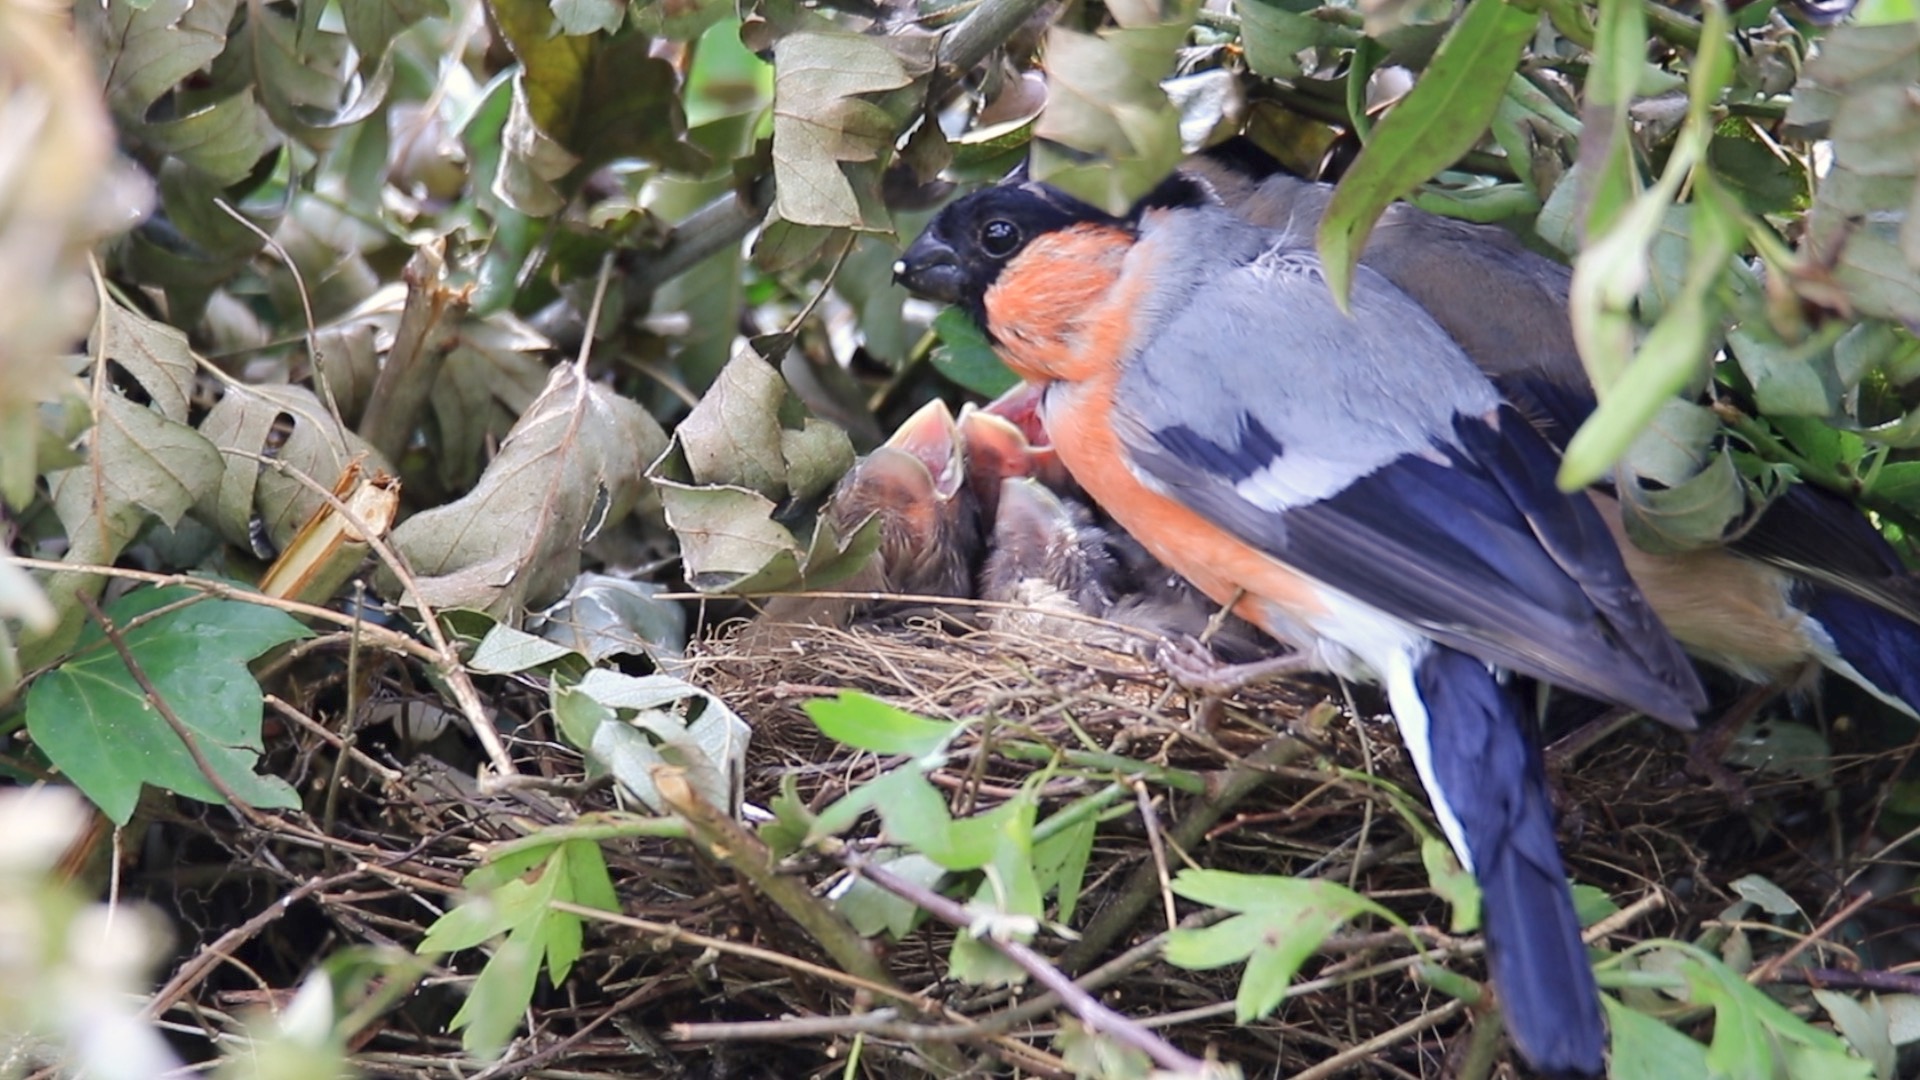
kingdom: Animalia
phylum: Chordata
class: Aves
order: Passeriformes
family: Fringillidae
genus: Pyrrhula
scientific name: Pyrrhula pyrrhula
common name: Dompap
